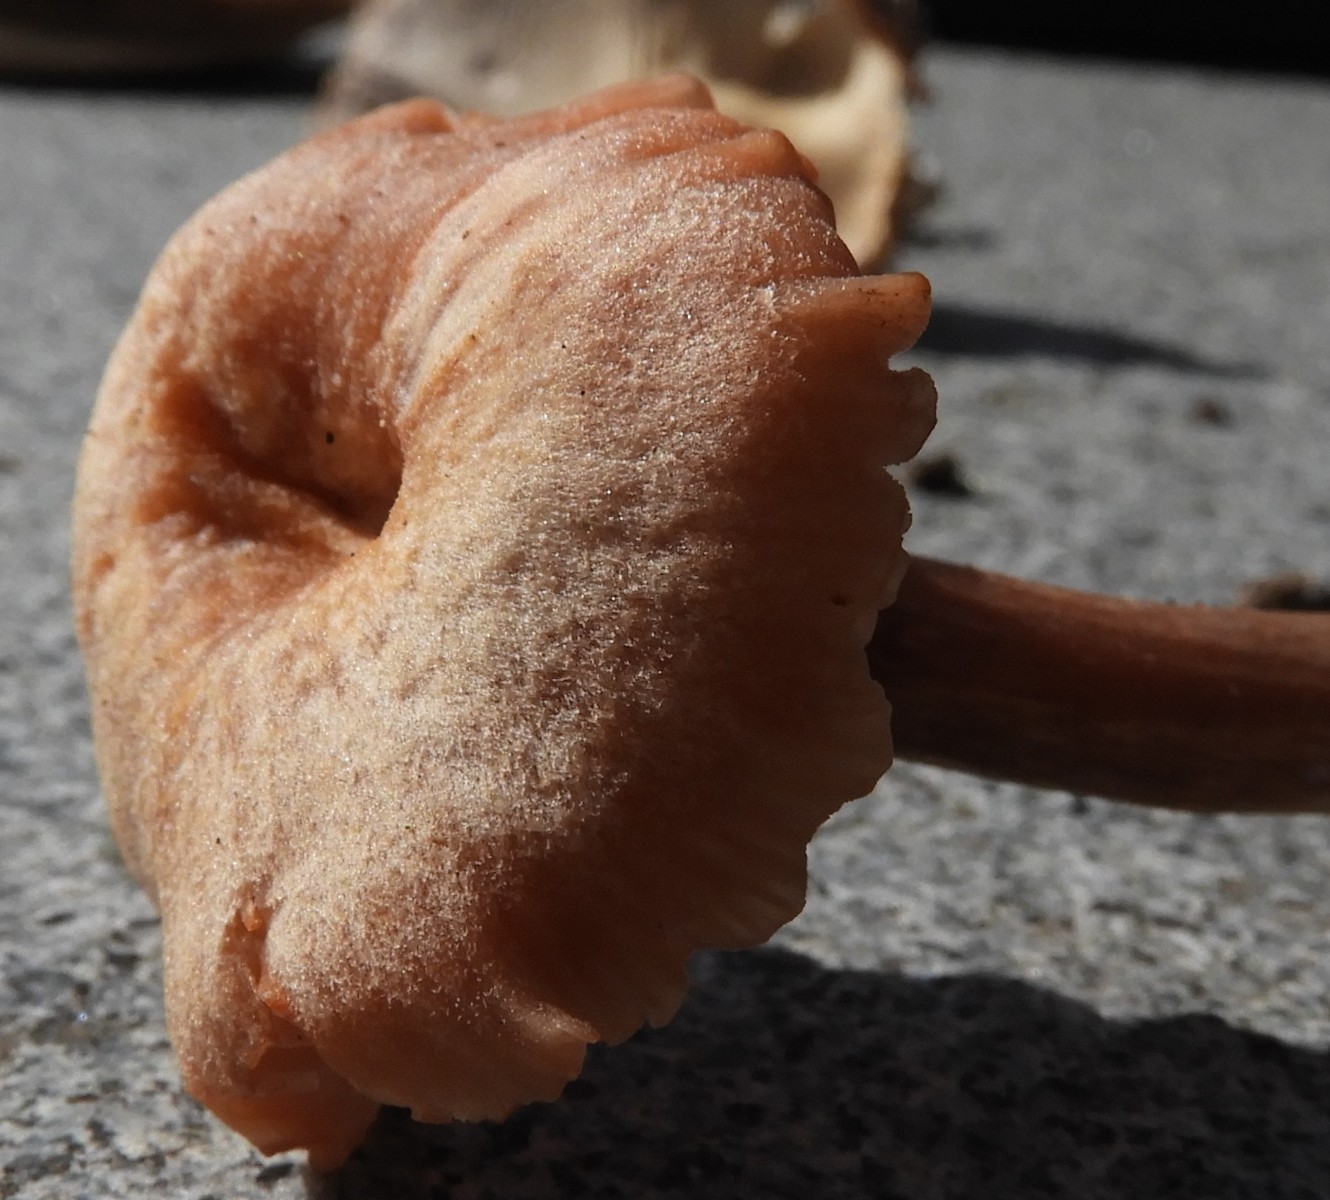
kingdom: Fungi
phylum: Basidiomycota
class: Agaricomycetes
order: Agaricales
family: Hydnangiaceae
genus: Laccaria
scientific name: Laccaria laccata
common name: rød ametysthat
